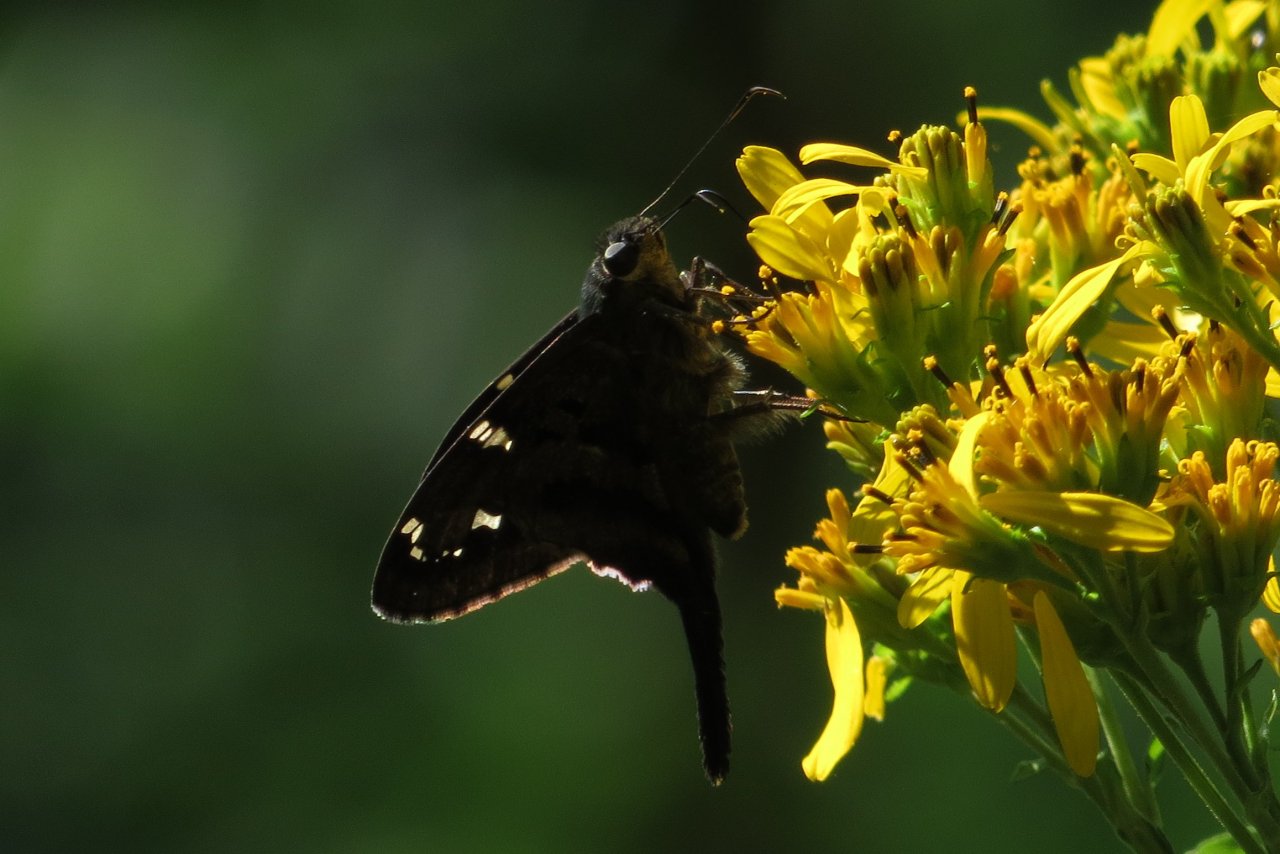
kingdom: Animalia
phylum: Arthropoda
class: Insecta
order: Lepidoptera
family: Hesperiidae
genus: Urbanus
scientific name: Urbanus proteus
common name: Long-tailed Skipper
